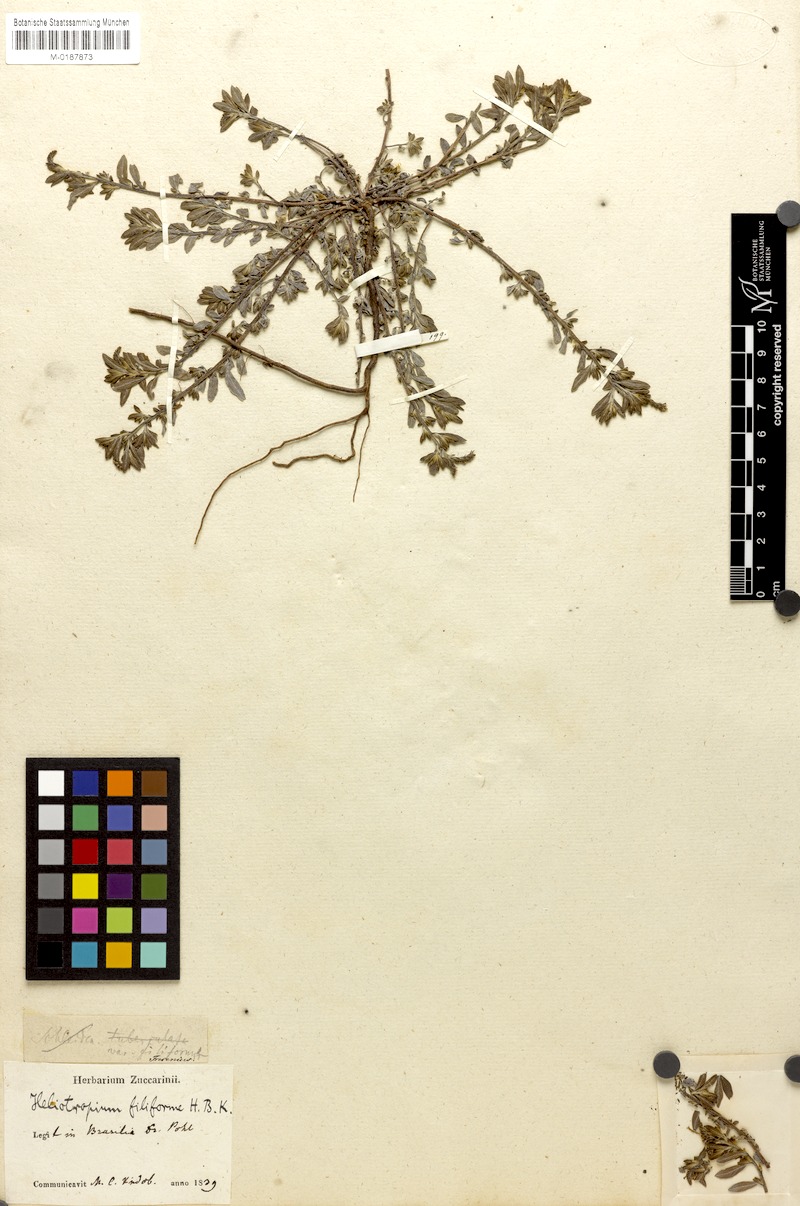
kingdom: Plantae
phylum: Tracheophyta
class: Magnoliopsida
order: Boraginales
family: Heliotropiaceae
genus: Euploca
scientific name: Euploca filiformis
